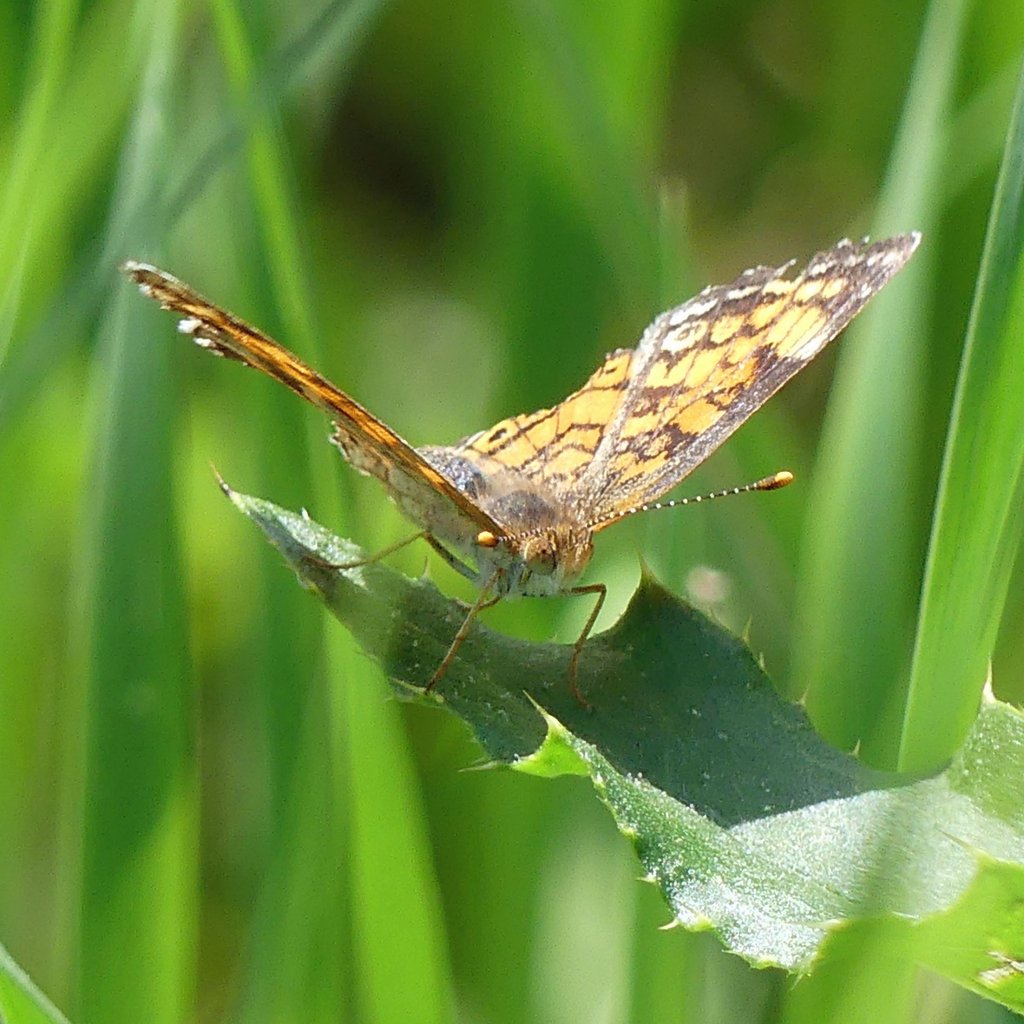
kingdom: Animalia
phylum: Arthropoda
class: Insecta
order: Lepidoptera
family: Nymphalidae
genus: Phyciodes
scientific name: Phyciodes tharos
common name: Northern Crescent
